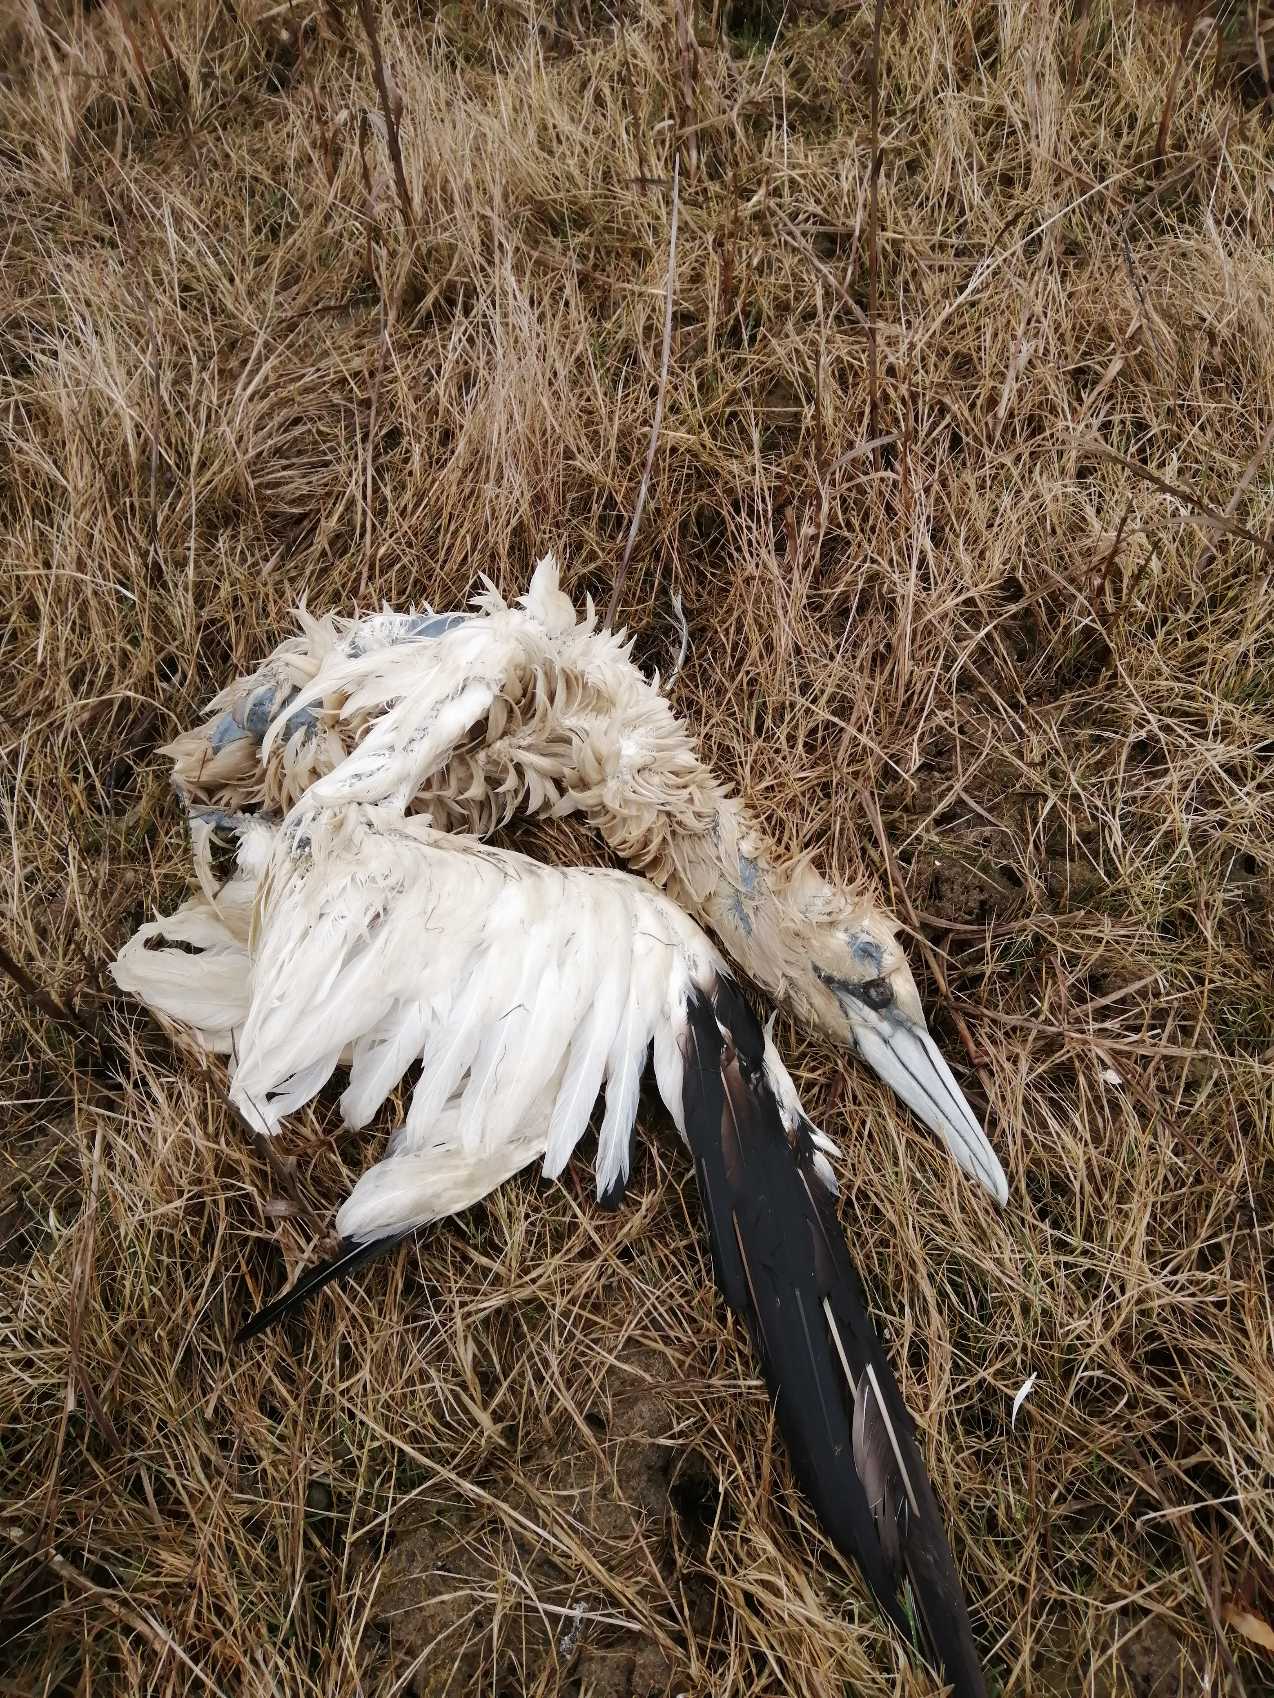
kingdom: Animalia
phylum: Chordata
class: Aves
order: Suliformes
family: Sulidae
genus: Morus
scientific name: Morus bassanus
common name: Sule
